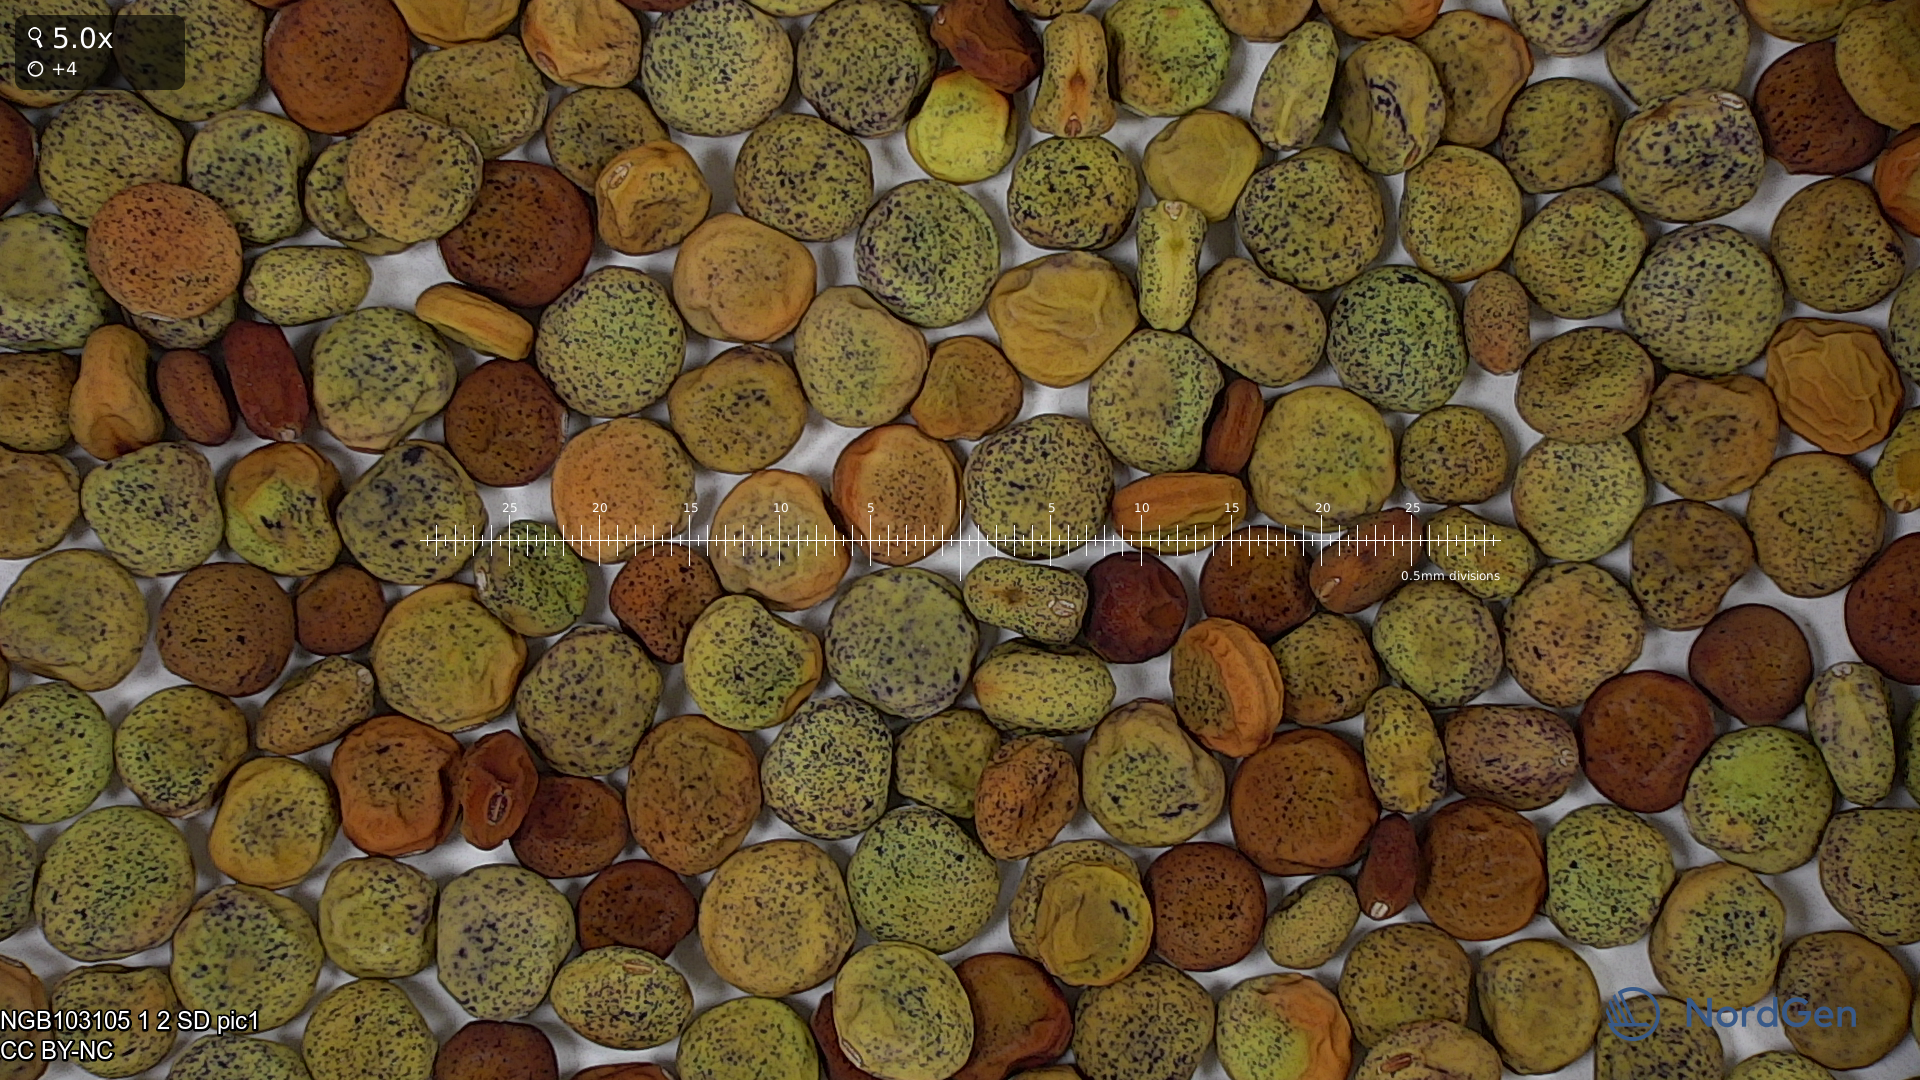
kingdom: Plantae
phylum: Tracheophyta
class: Magnoliopsida
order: Fabales
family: Fabaceae
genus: Lathyrus
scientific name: Lathyrus oleraceus
